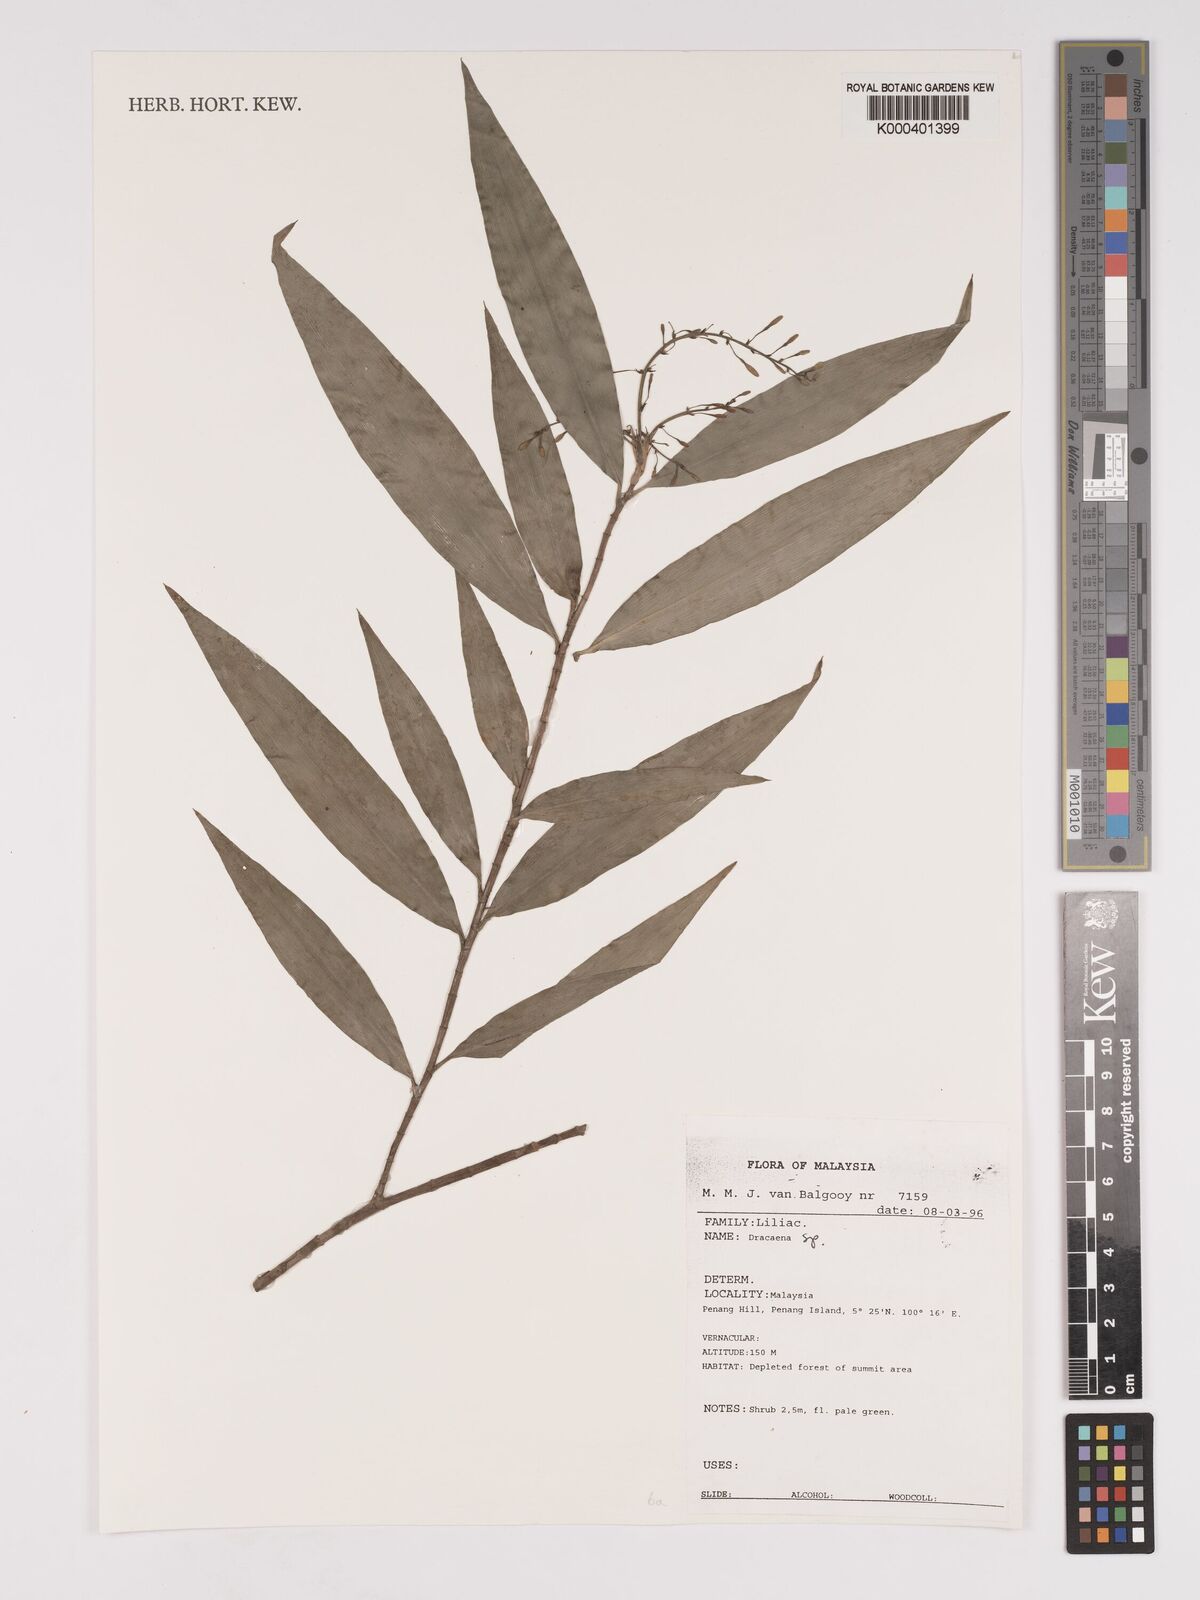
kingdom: Plantae
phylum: Tracheophyta
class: Liliopsida
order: Asparagales
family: Asparagaceae
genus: Dracaena
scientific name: Dracaena
